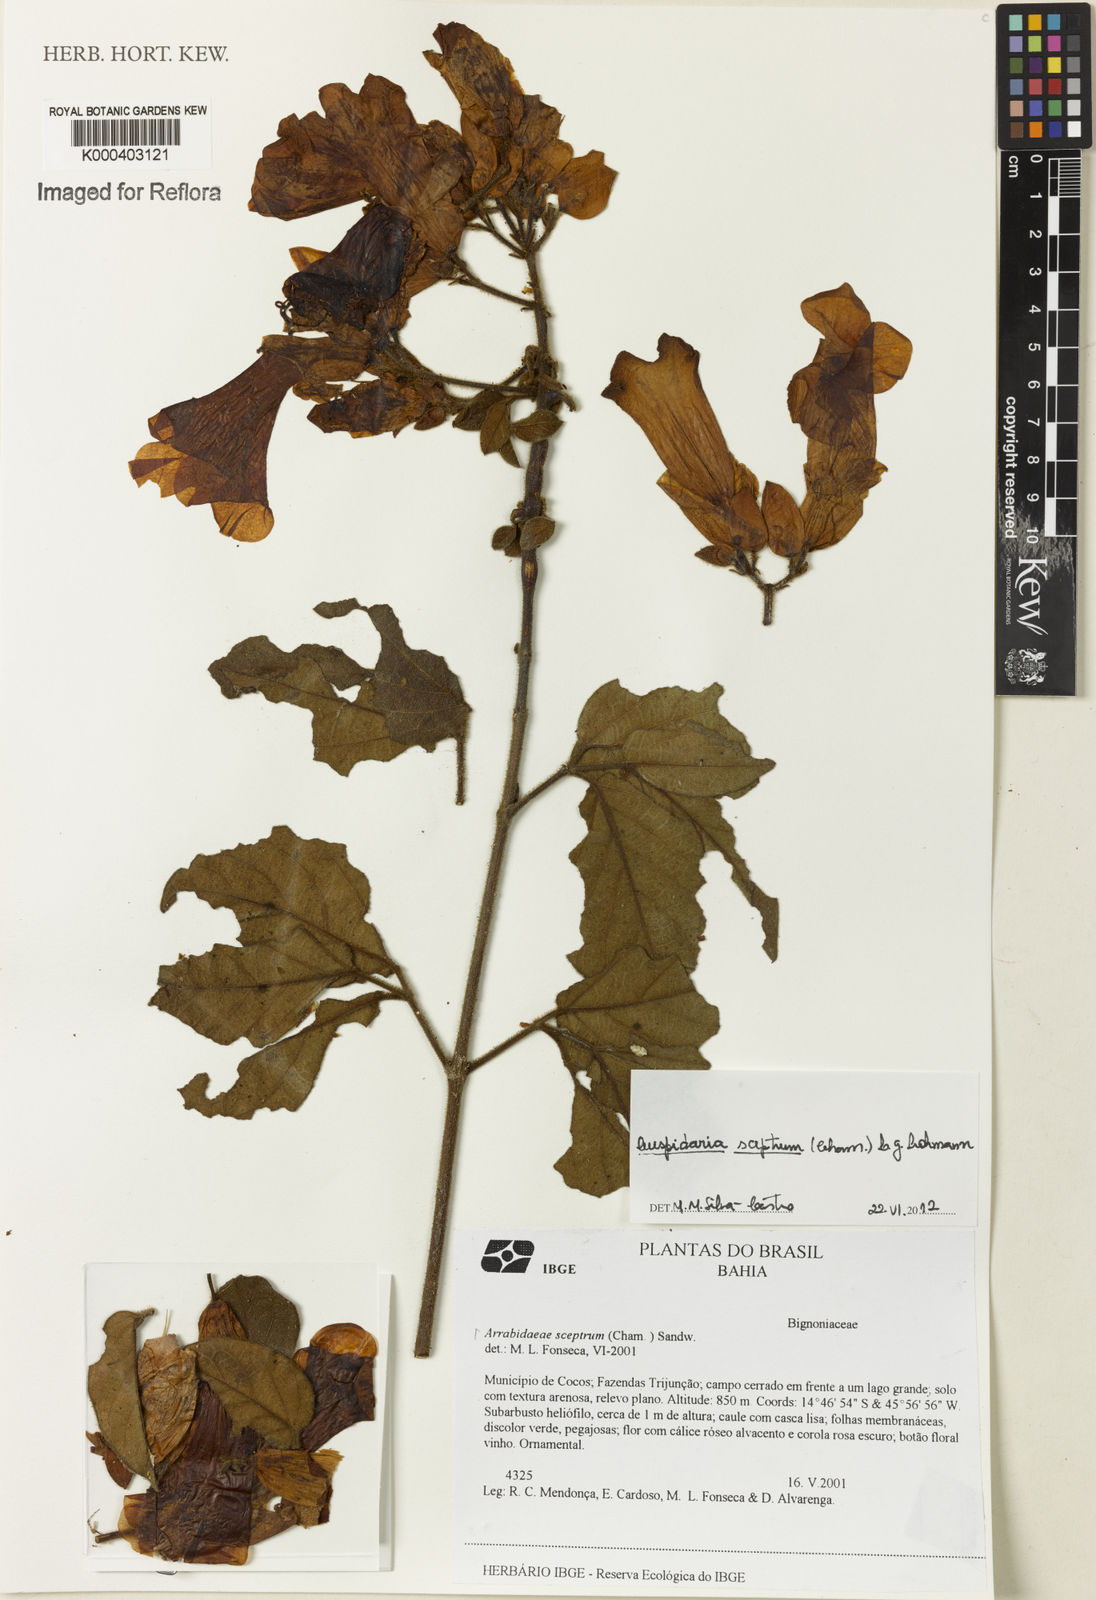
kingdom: Plantae
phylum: Tracheophyta
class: Magnoliopsida
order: Lamiales
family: Bignoniaceae
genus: Cuspidaria
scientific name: Cuspidaria sceptrum
